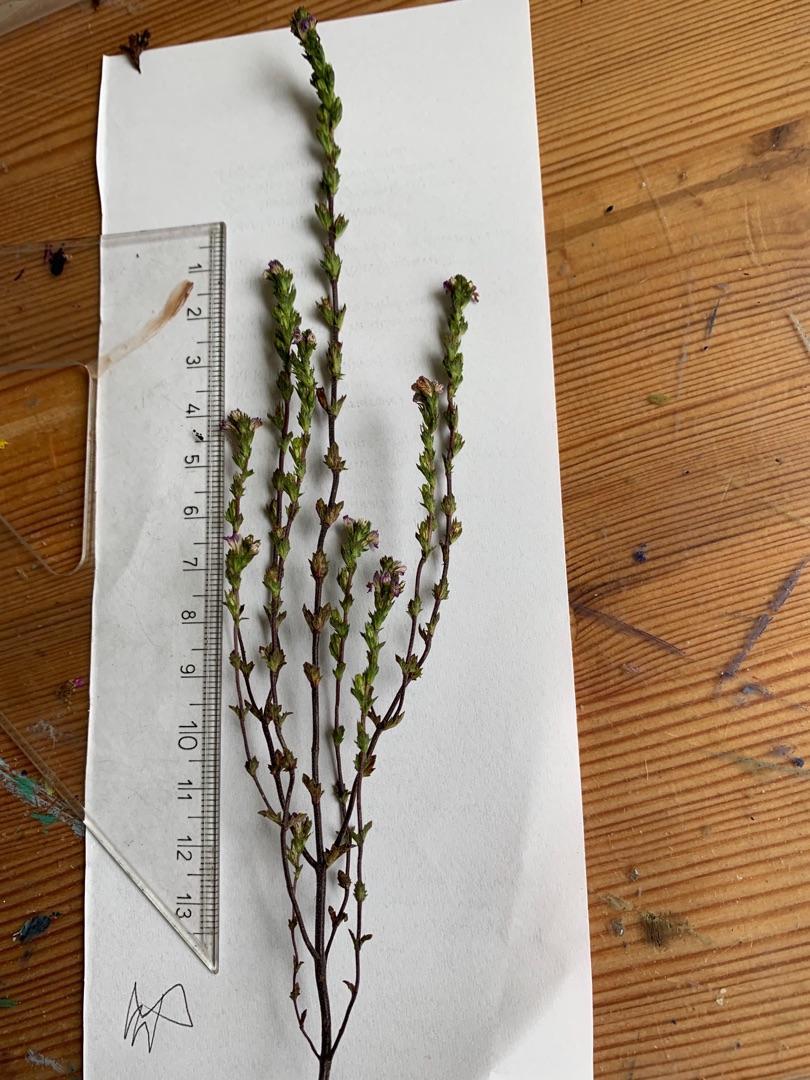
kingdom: Plantae
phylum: Tracheophyta
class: Magnoliopsida
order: Lamiales
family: Orobanchaceae
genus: Euphrasia
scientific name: Euphrasia micrantha
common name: Lyng-øjentrøst
